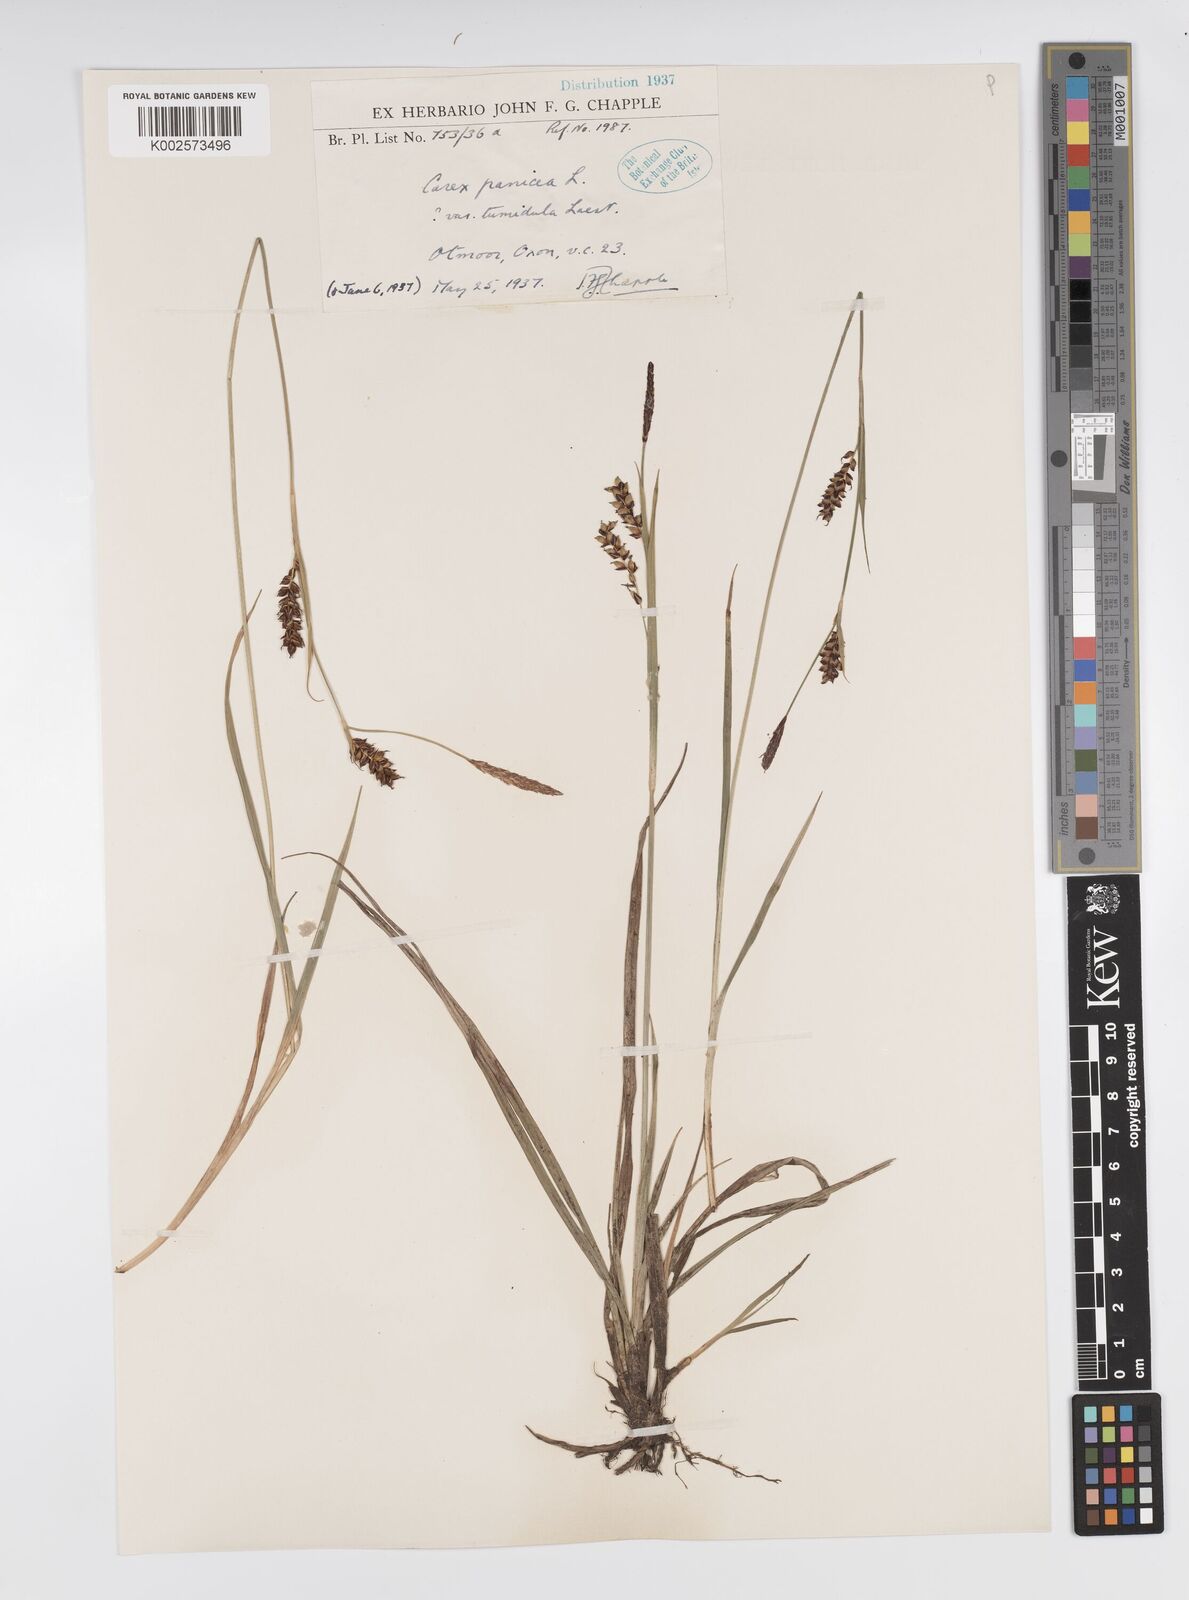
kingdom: Plantae
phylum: Tracheophyta
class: Liliopsida
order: Poales
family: Cyperaceae
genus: Carex
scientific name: Carex panicea
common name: Carnation sedge
